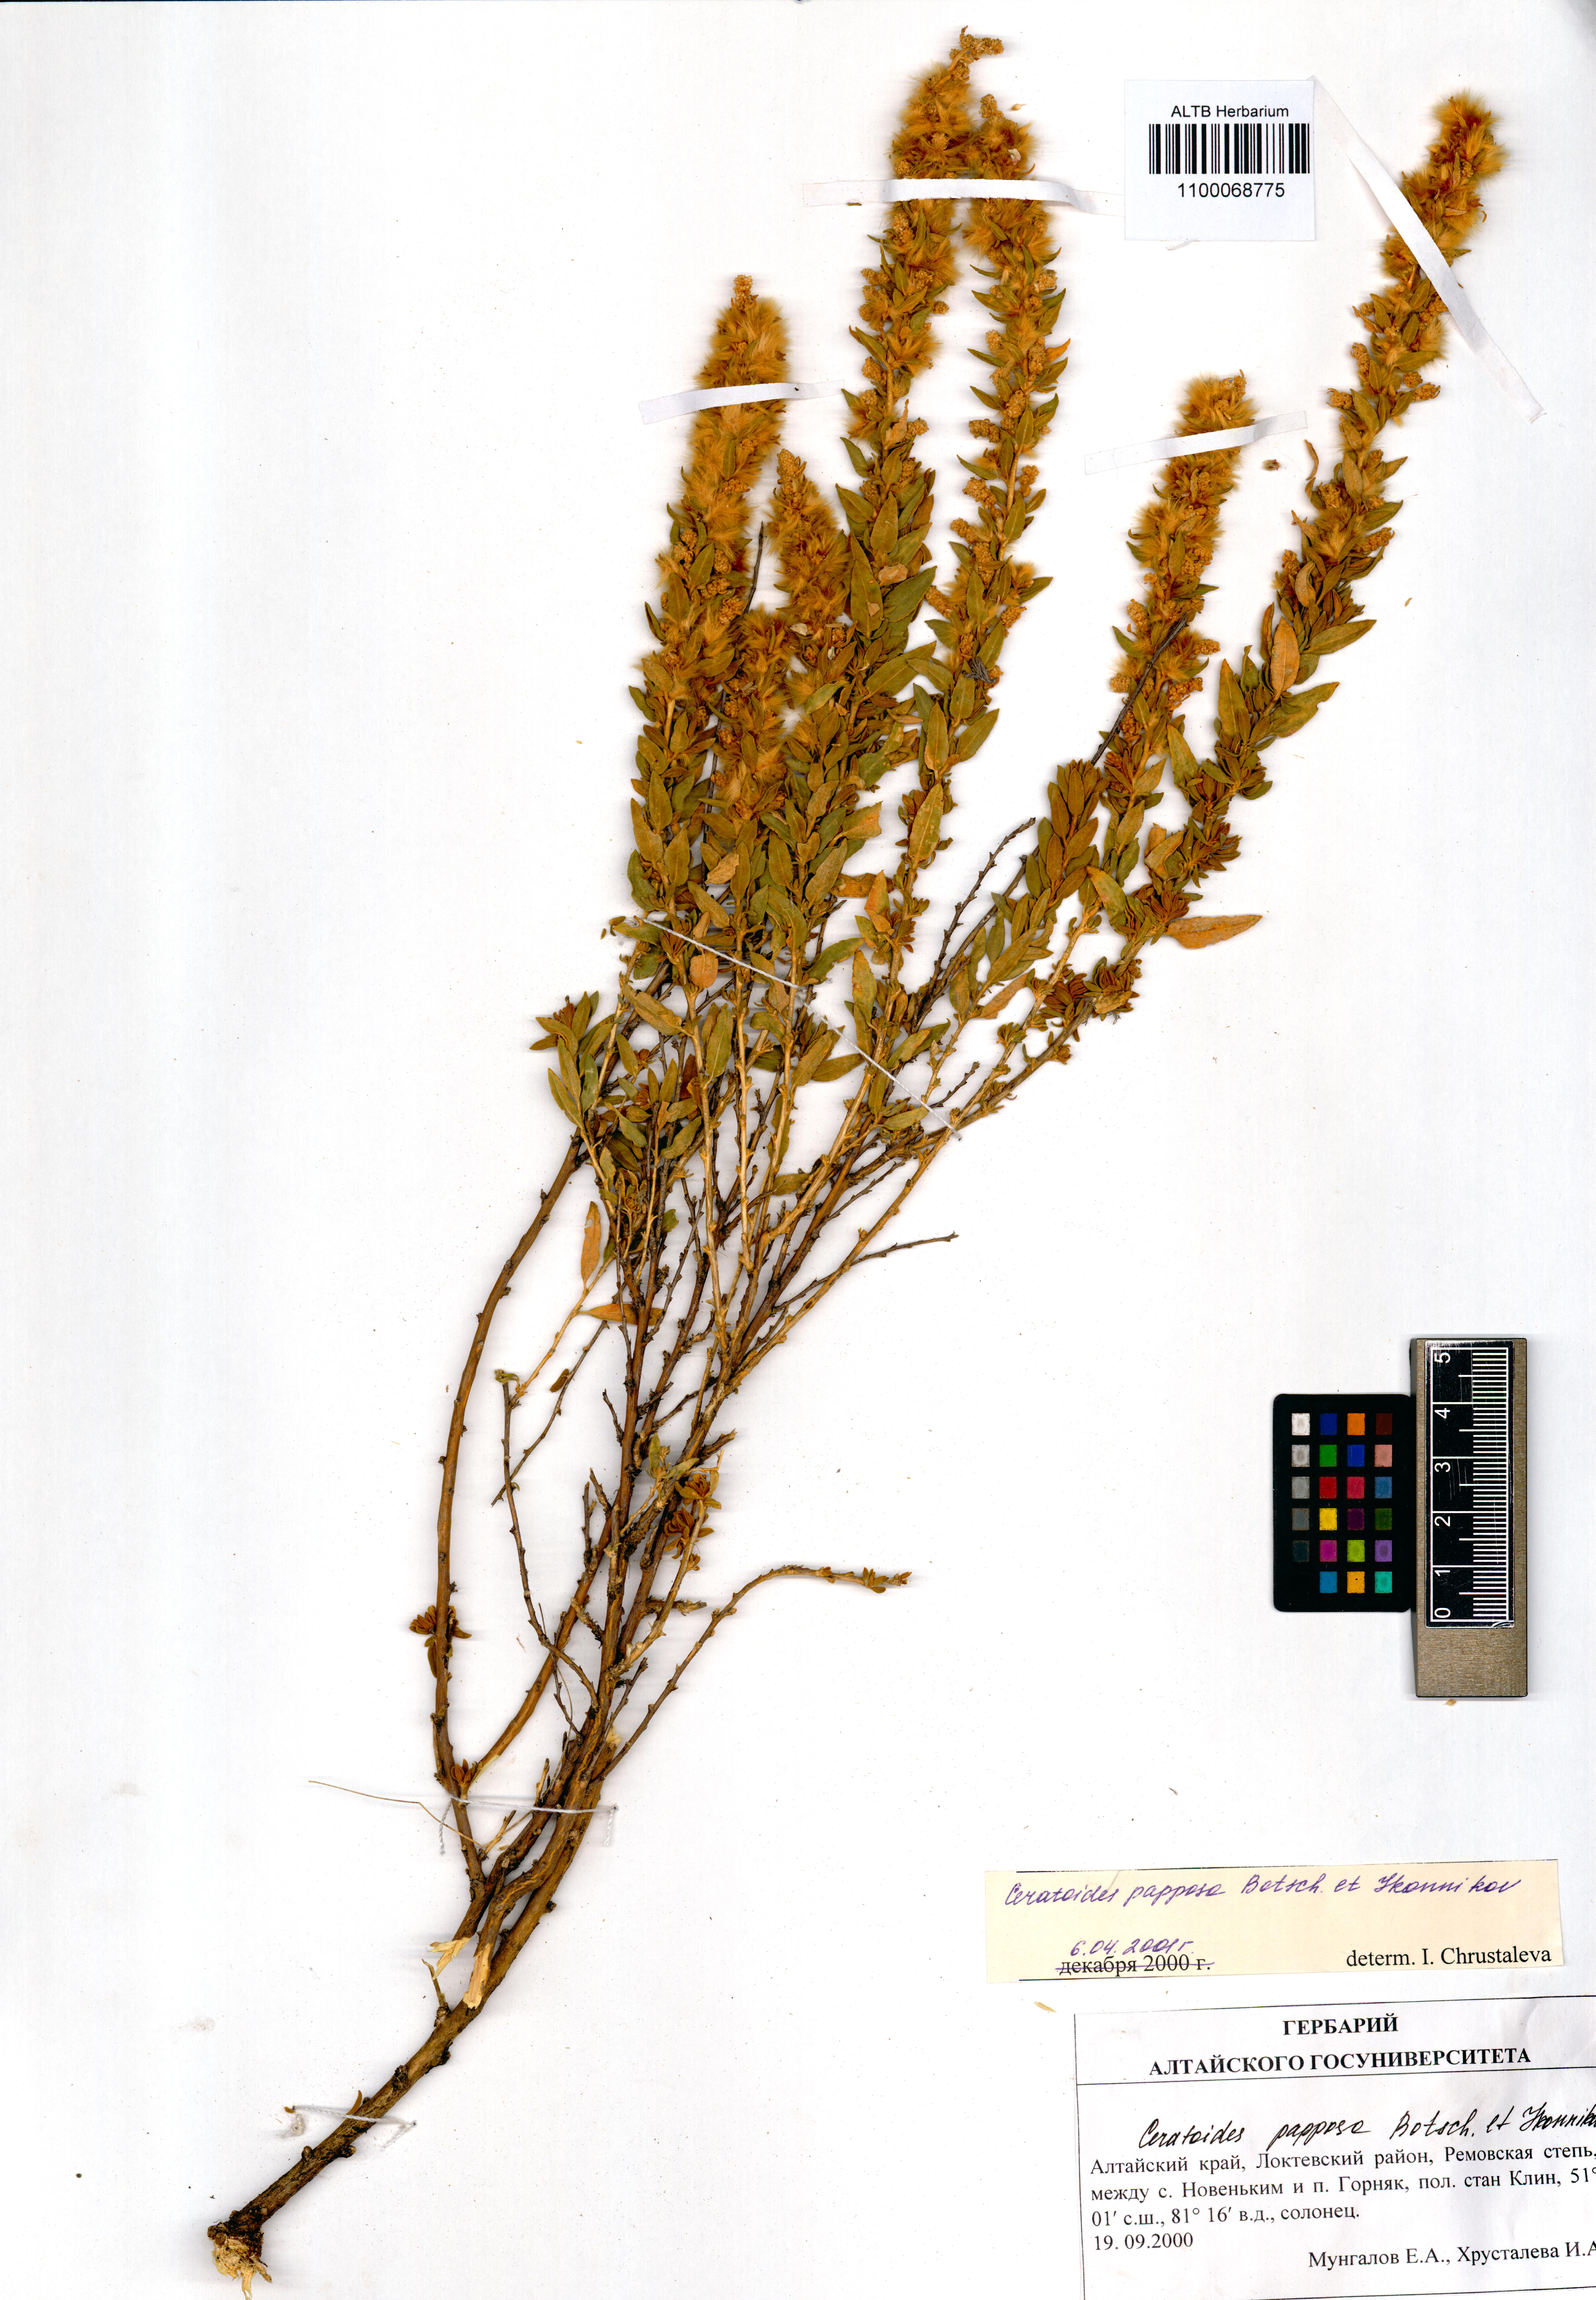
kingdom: Plantae
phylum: Tracheophyta
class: Magnoliopsida
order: Caryophyllales
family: Amaranthaceae
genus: Krascheninnikovia
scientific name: Krascheninnikovia ceratoides
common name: Pamirian winterfat
